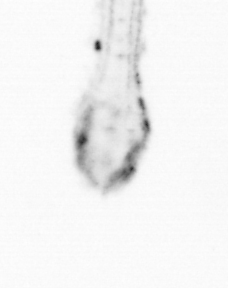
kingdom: Animalia
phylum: Chaetognatha
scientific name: Chaetognatha
